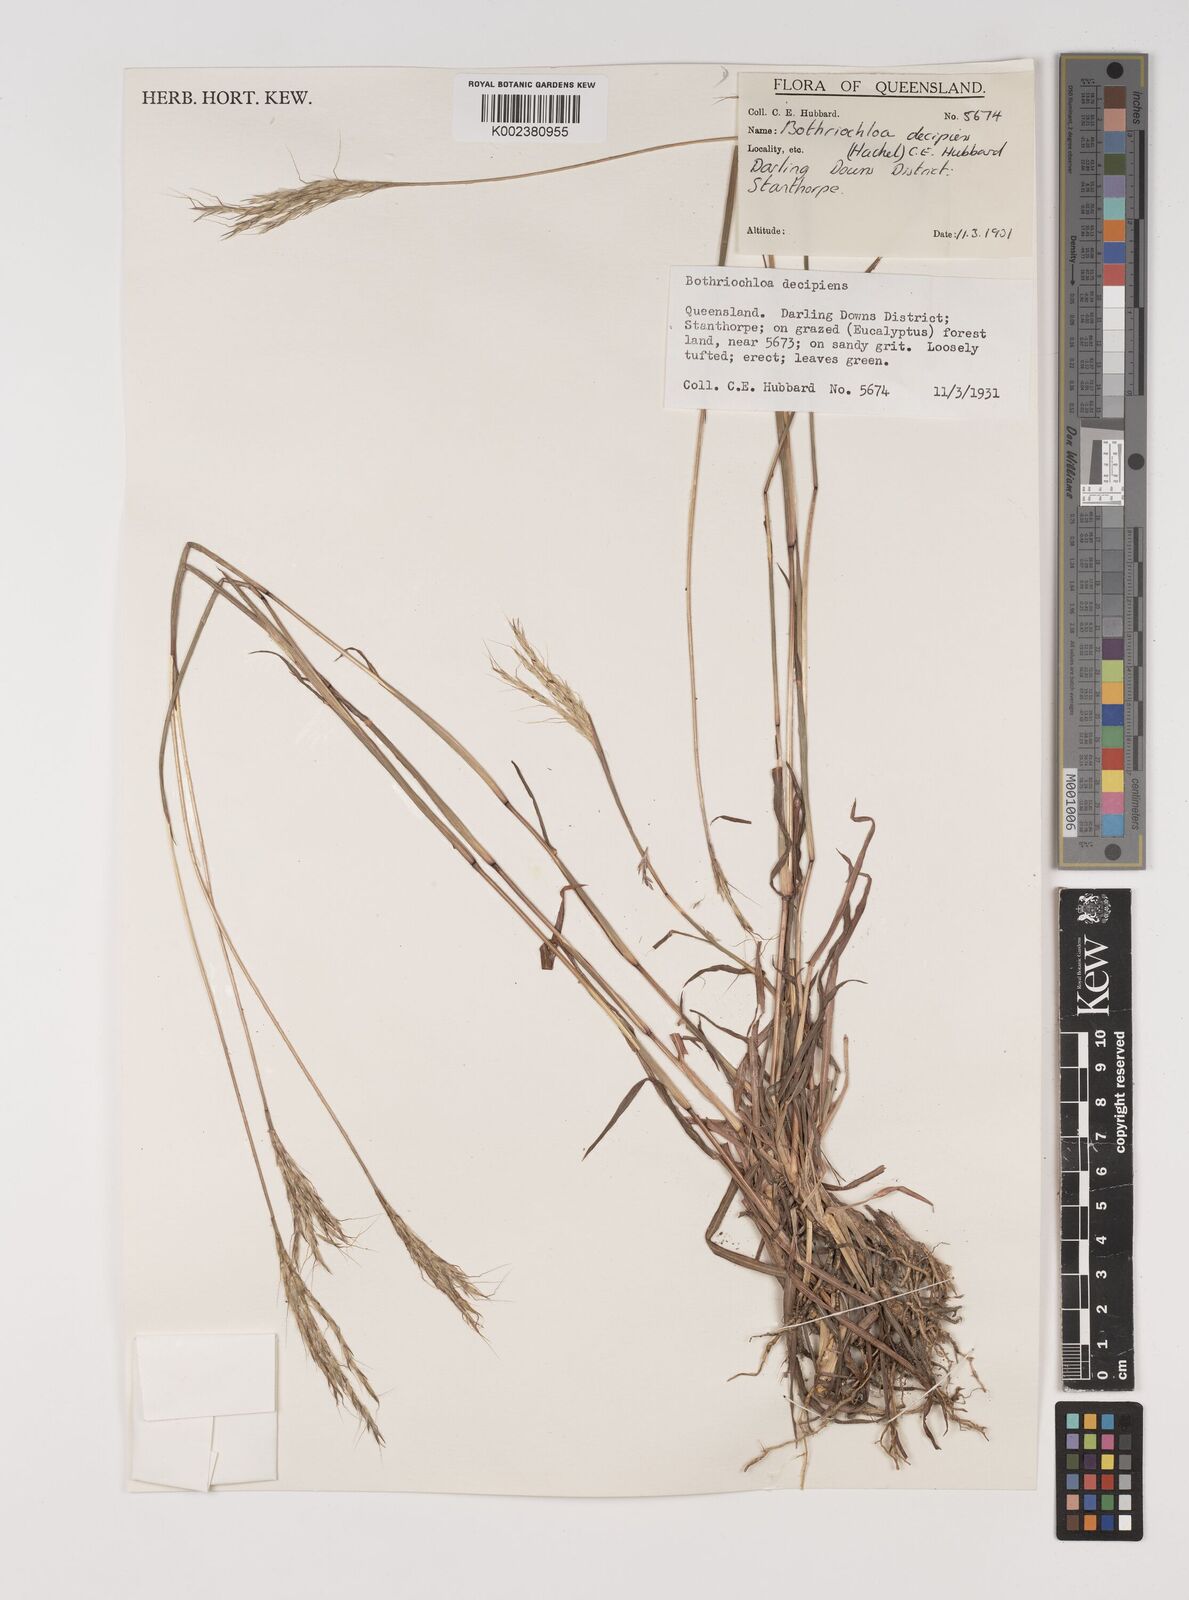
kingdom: Plantae
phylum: Tracheophyta
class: Liliopsida
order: Poales
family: Poaceae
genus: Bothriochloa
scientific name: Bothriochloa decipiens
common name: Pitted-bluegrass
